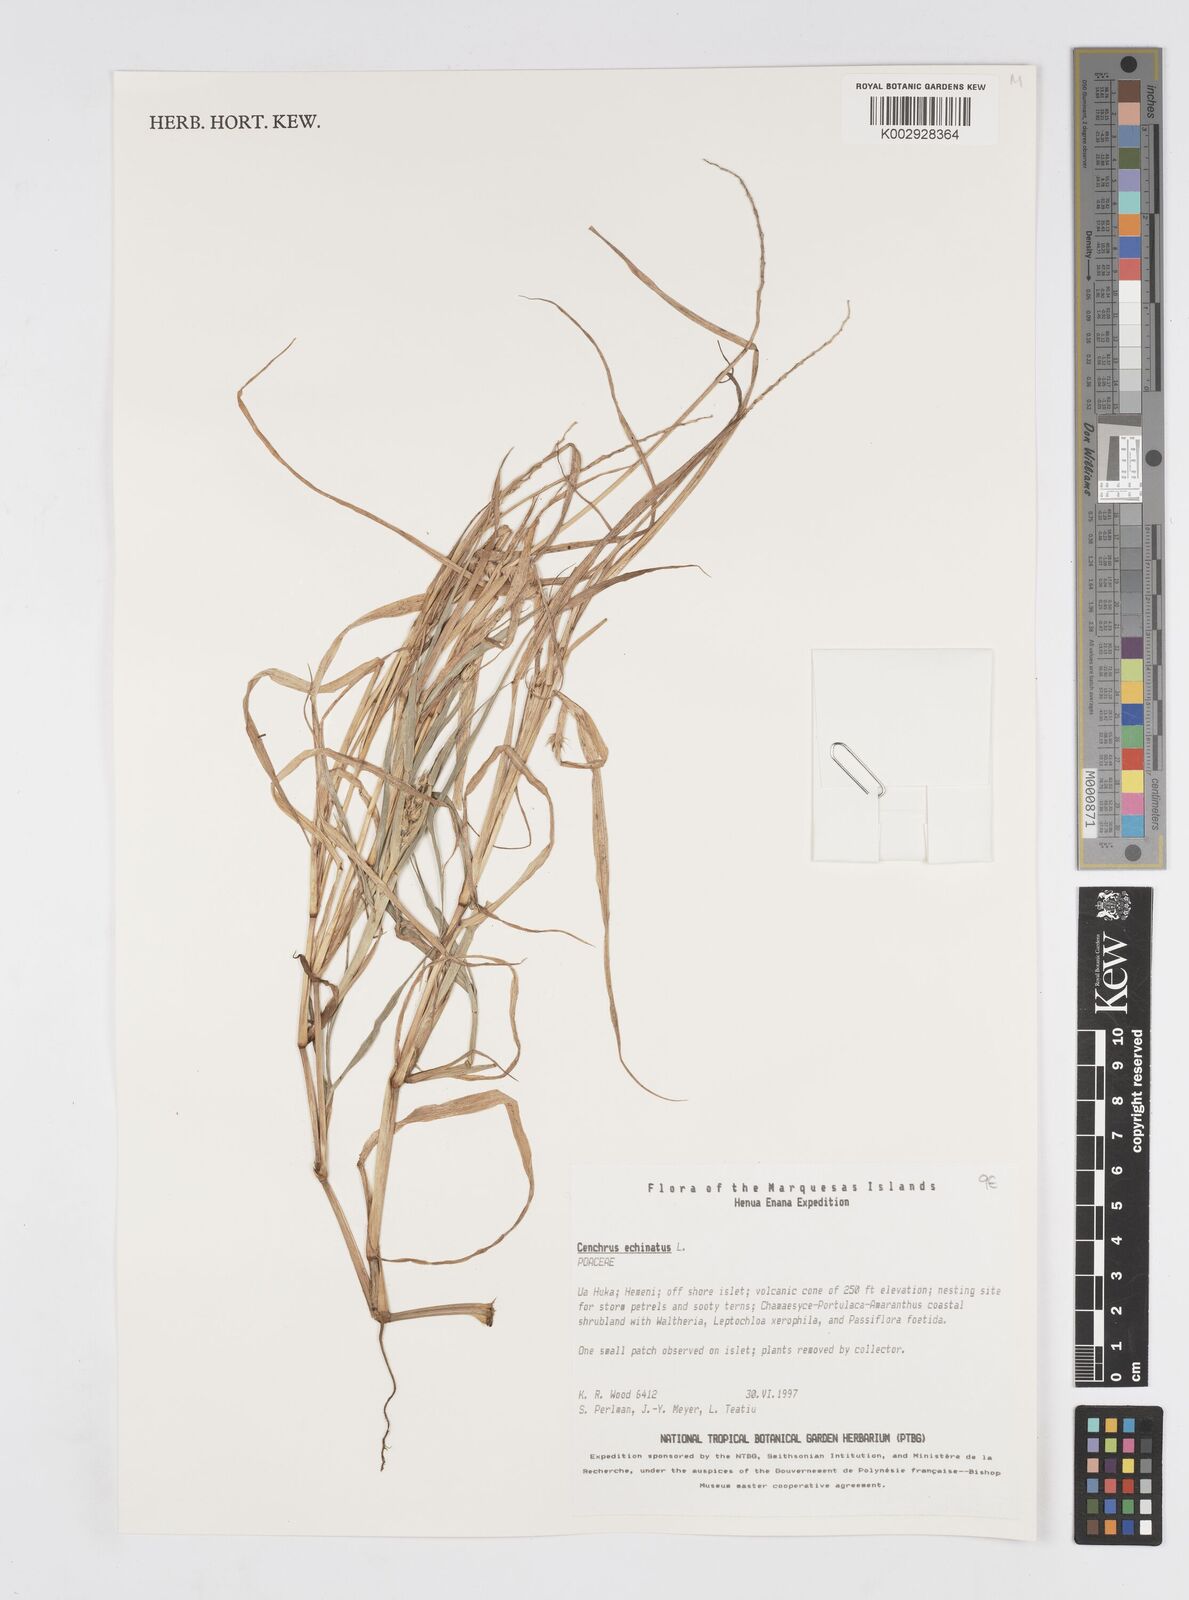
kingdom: Plantae
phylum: Tracheophyta
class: Liliopsida
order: Poales
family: Poaceae
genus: Cenchrus
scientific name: Cenchrus echinatus
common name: Southern sandbur
